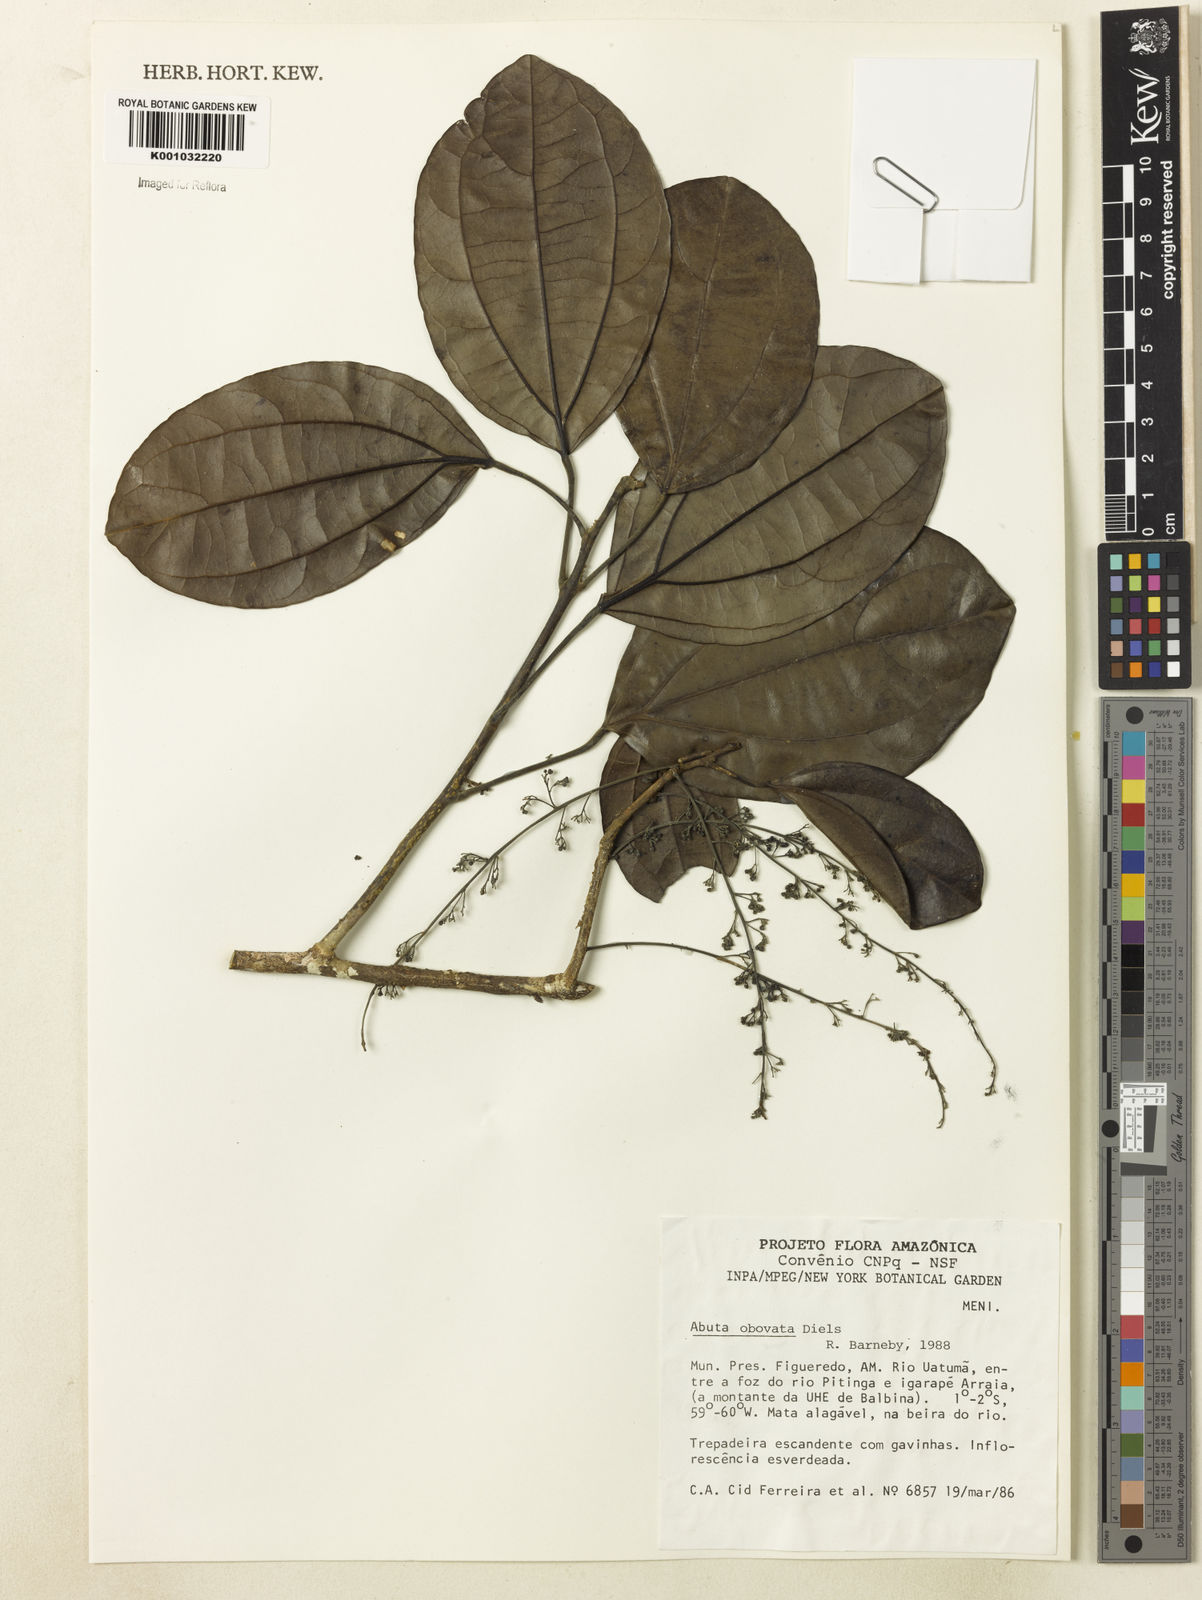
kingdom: Plantae
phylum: Tracheophyta
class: Magnoliopsida
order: Ranunculales
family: Menispermaceae
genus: Abuta
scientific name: Abuta obovata
